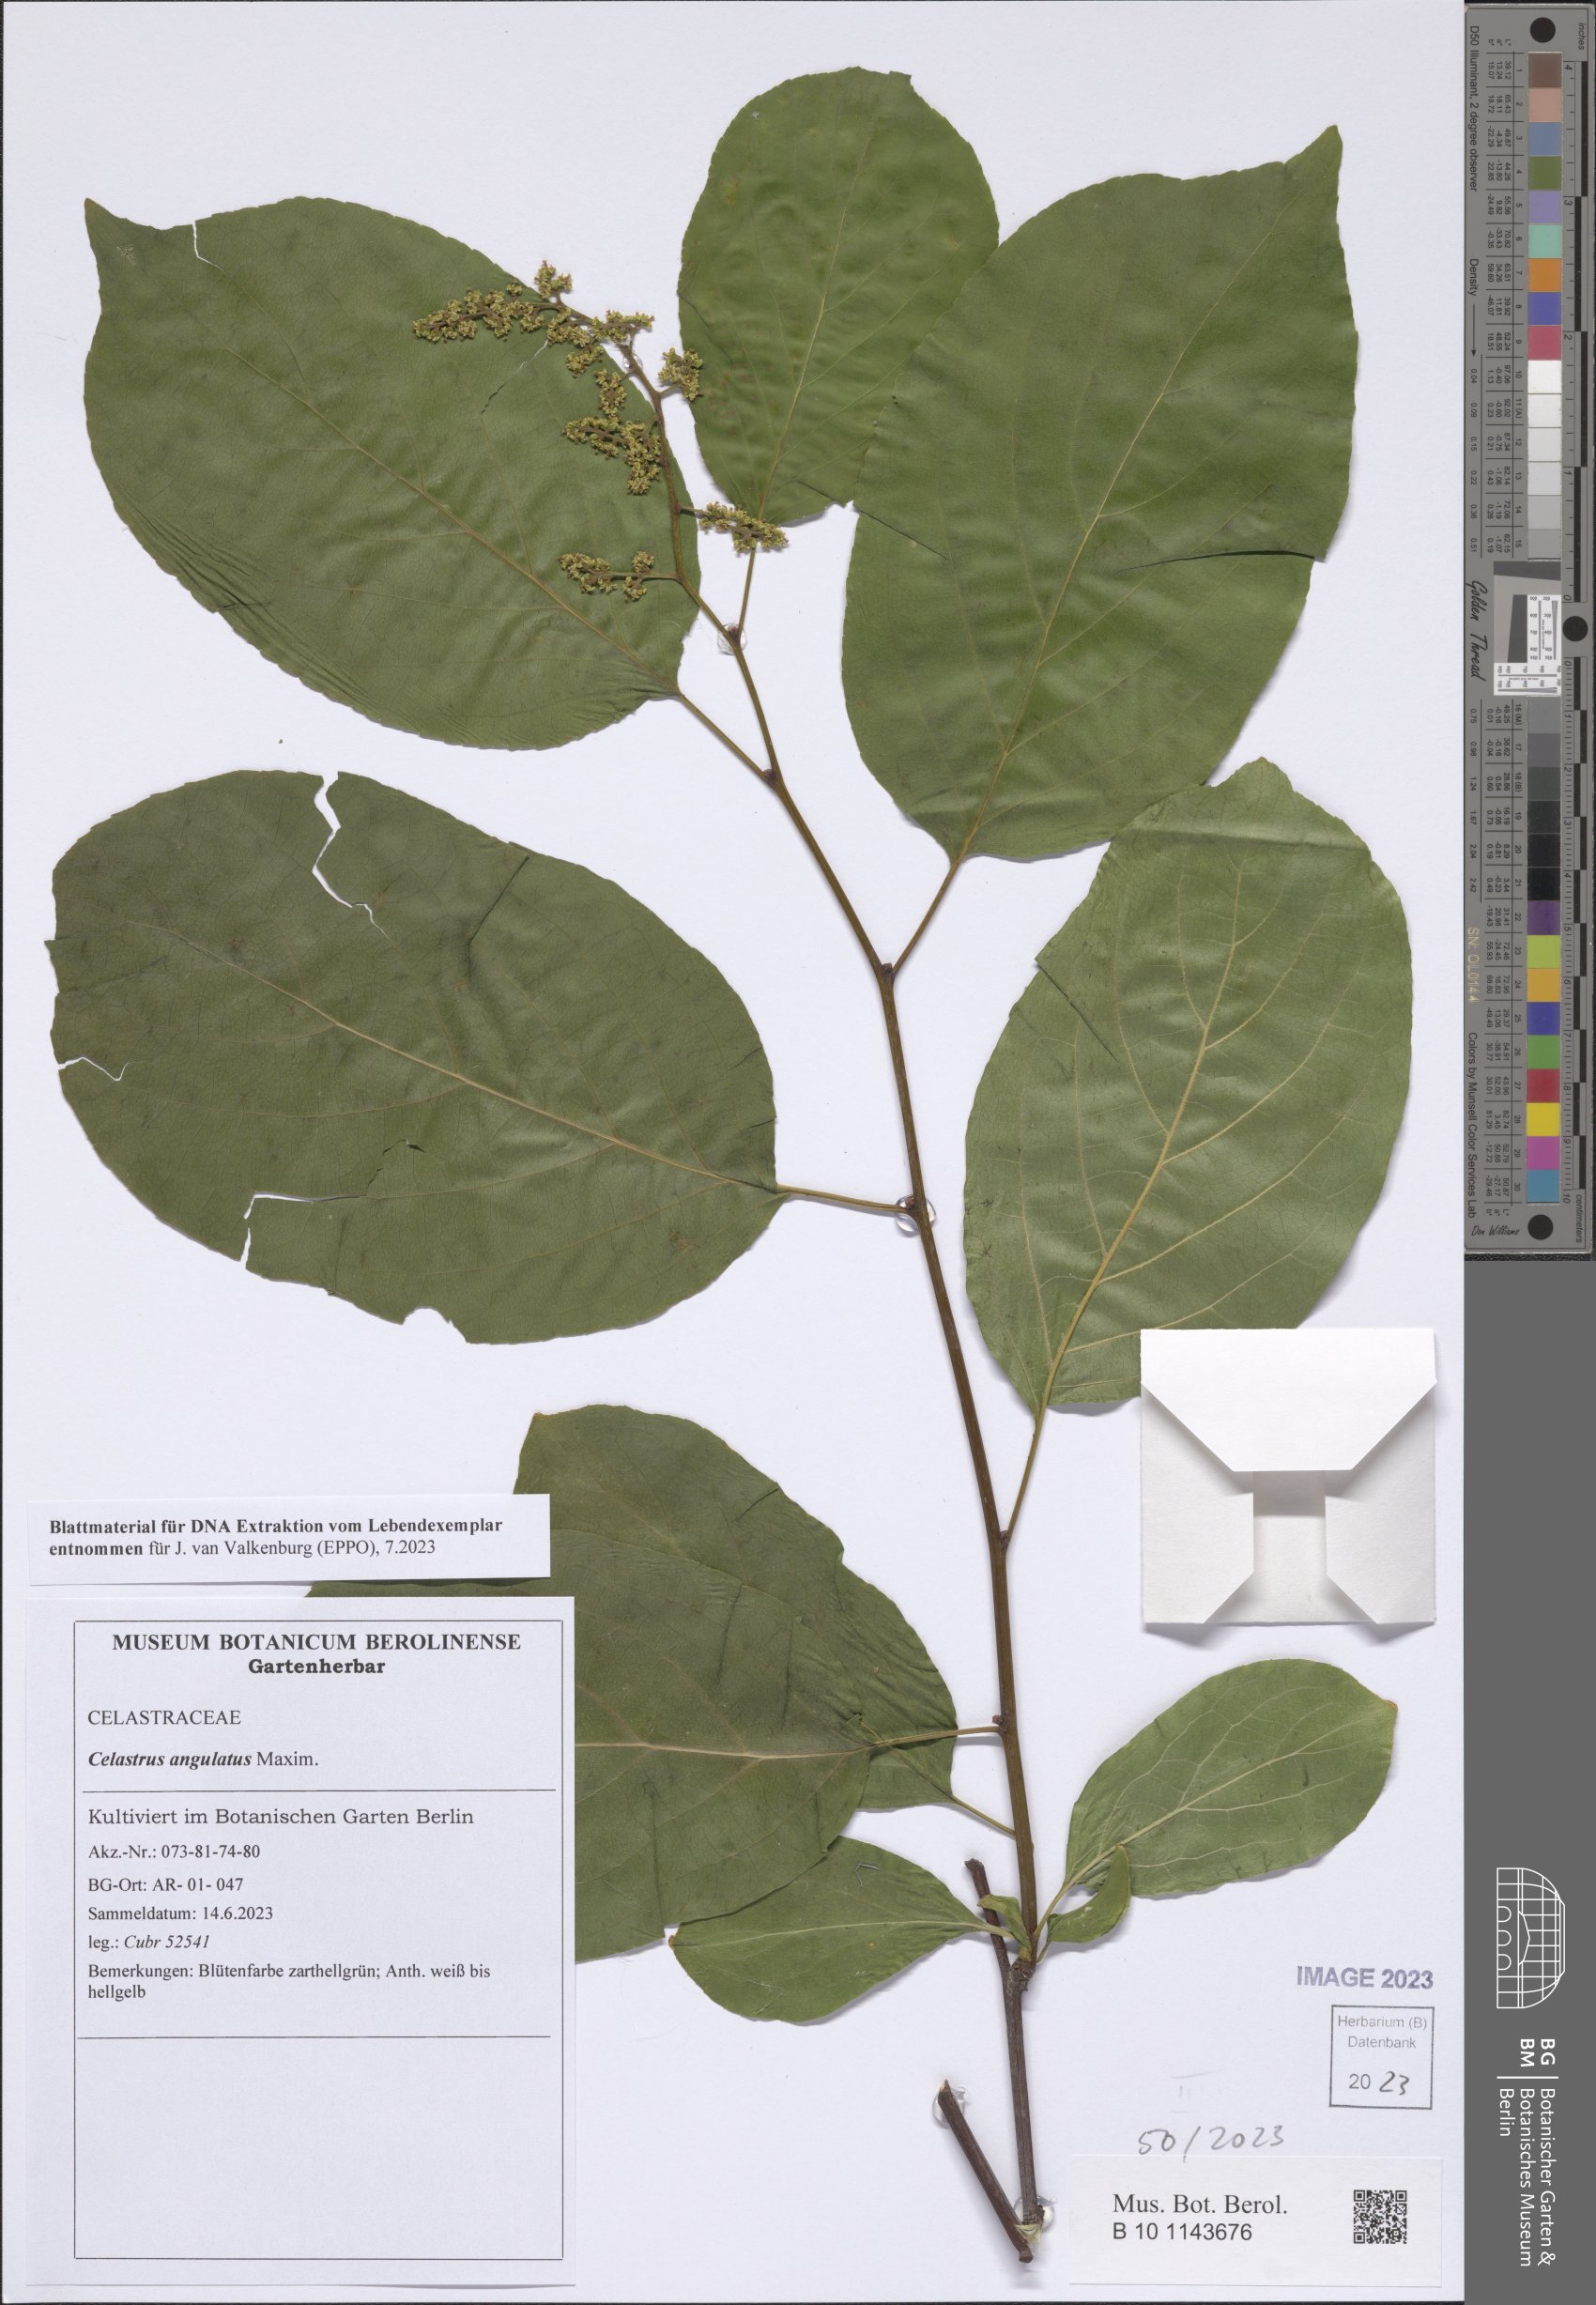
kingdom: Plantae
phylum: Tracheophyta
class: Magnoliopsida
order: Celastrales
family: Celastraceae
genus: Celastrus
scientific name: Celastrus angulatus
